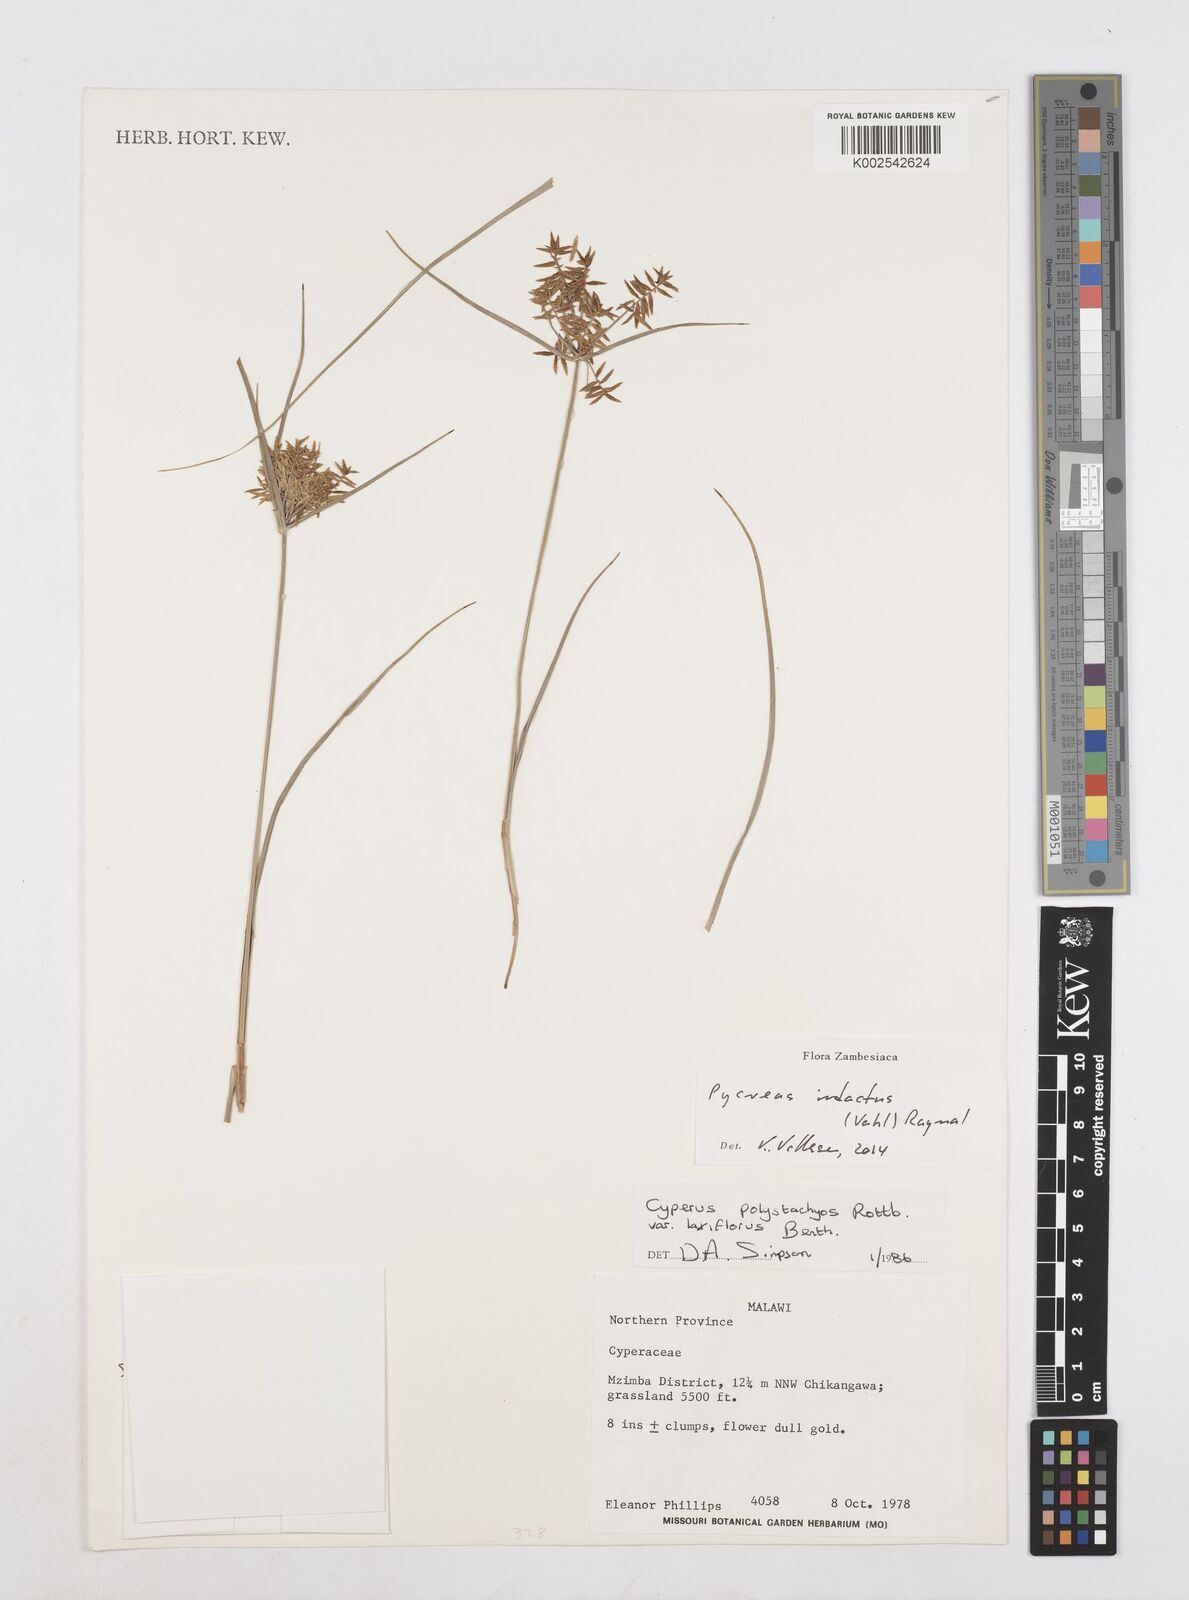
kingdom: Plantae
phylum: Tracheophyta
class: Liliopsida
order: Poales
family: Cyperaceae
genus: Cyperus
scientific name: Cyperus intactus
